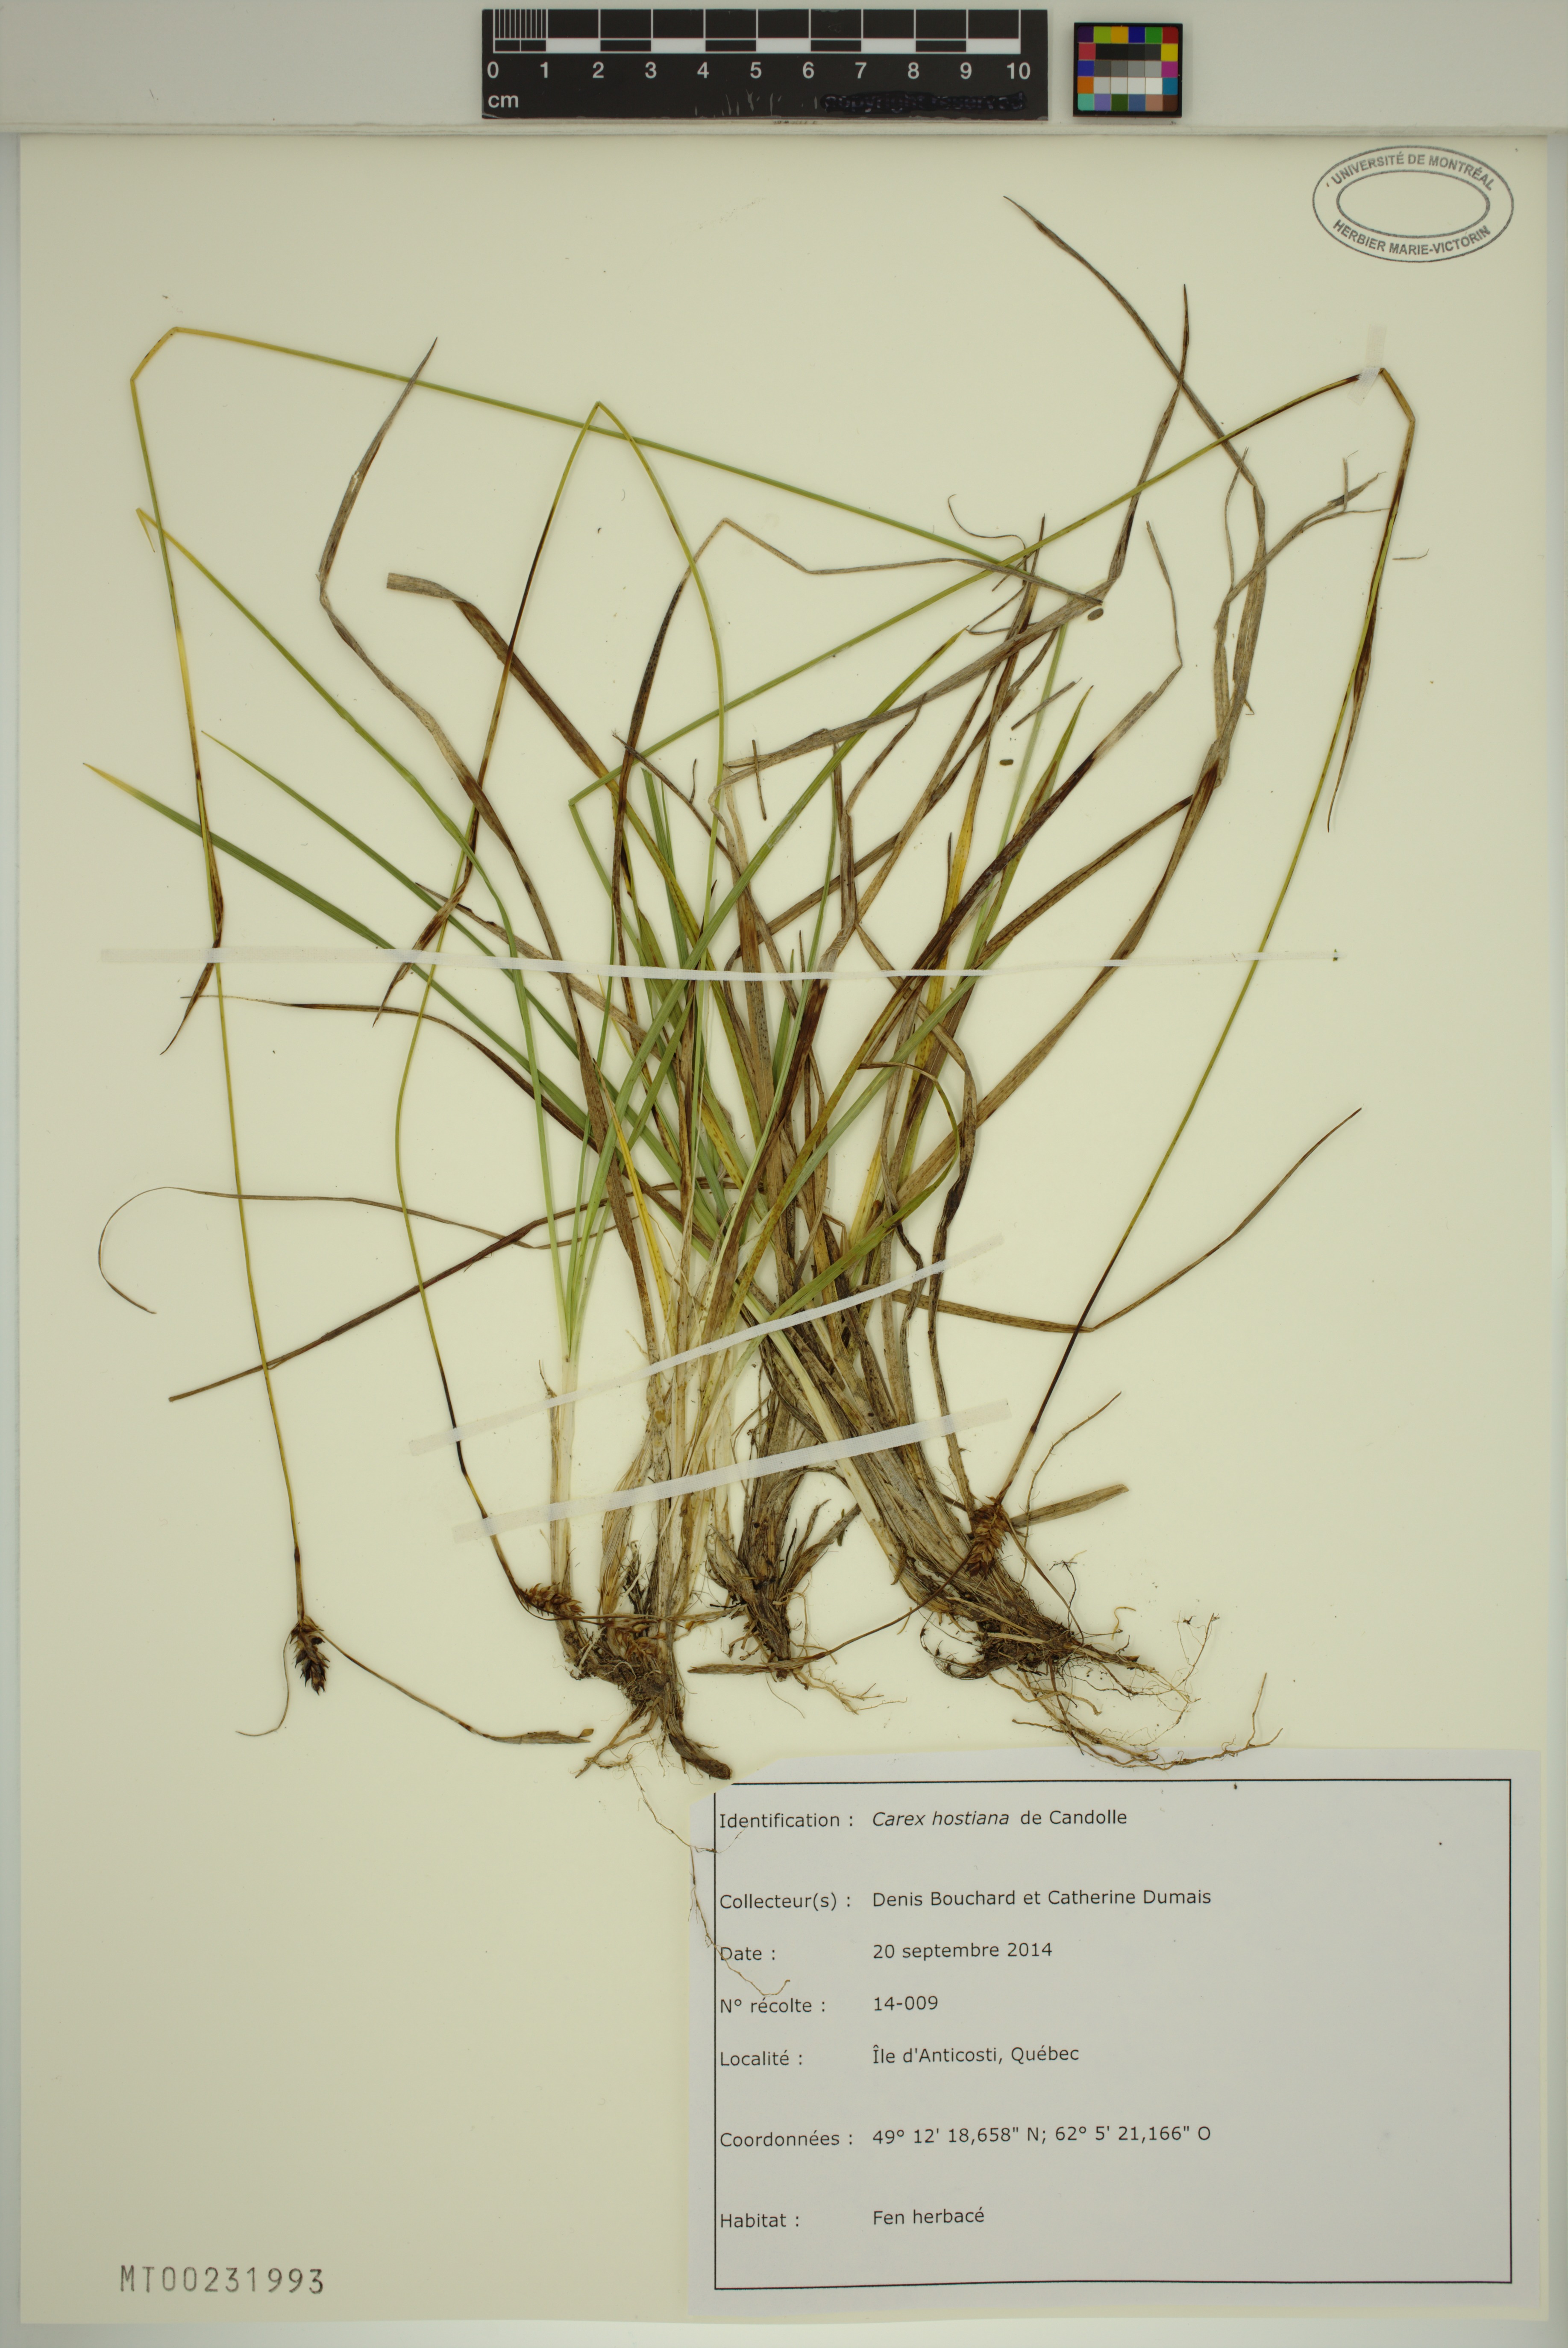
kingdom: Plantae
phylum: Tracheophyta
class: Liliopsida
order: Poales
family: Cyperaceae
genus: Carex
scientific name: Carex hostiana
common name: Tawny sedge
